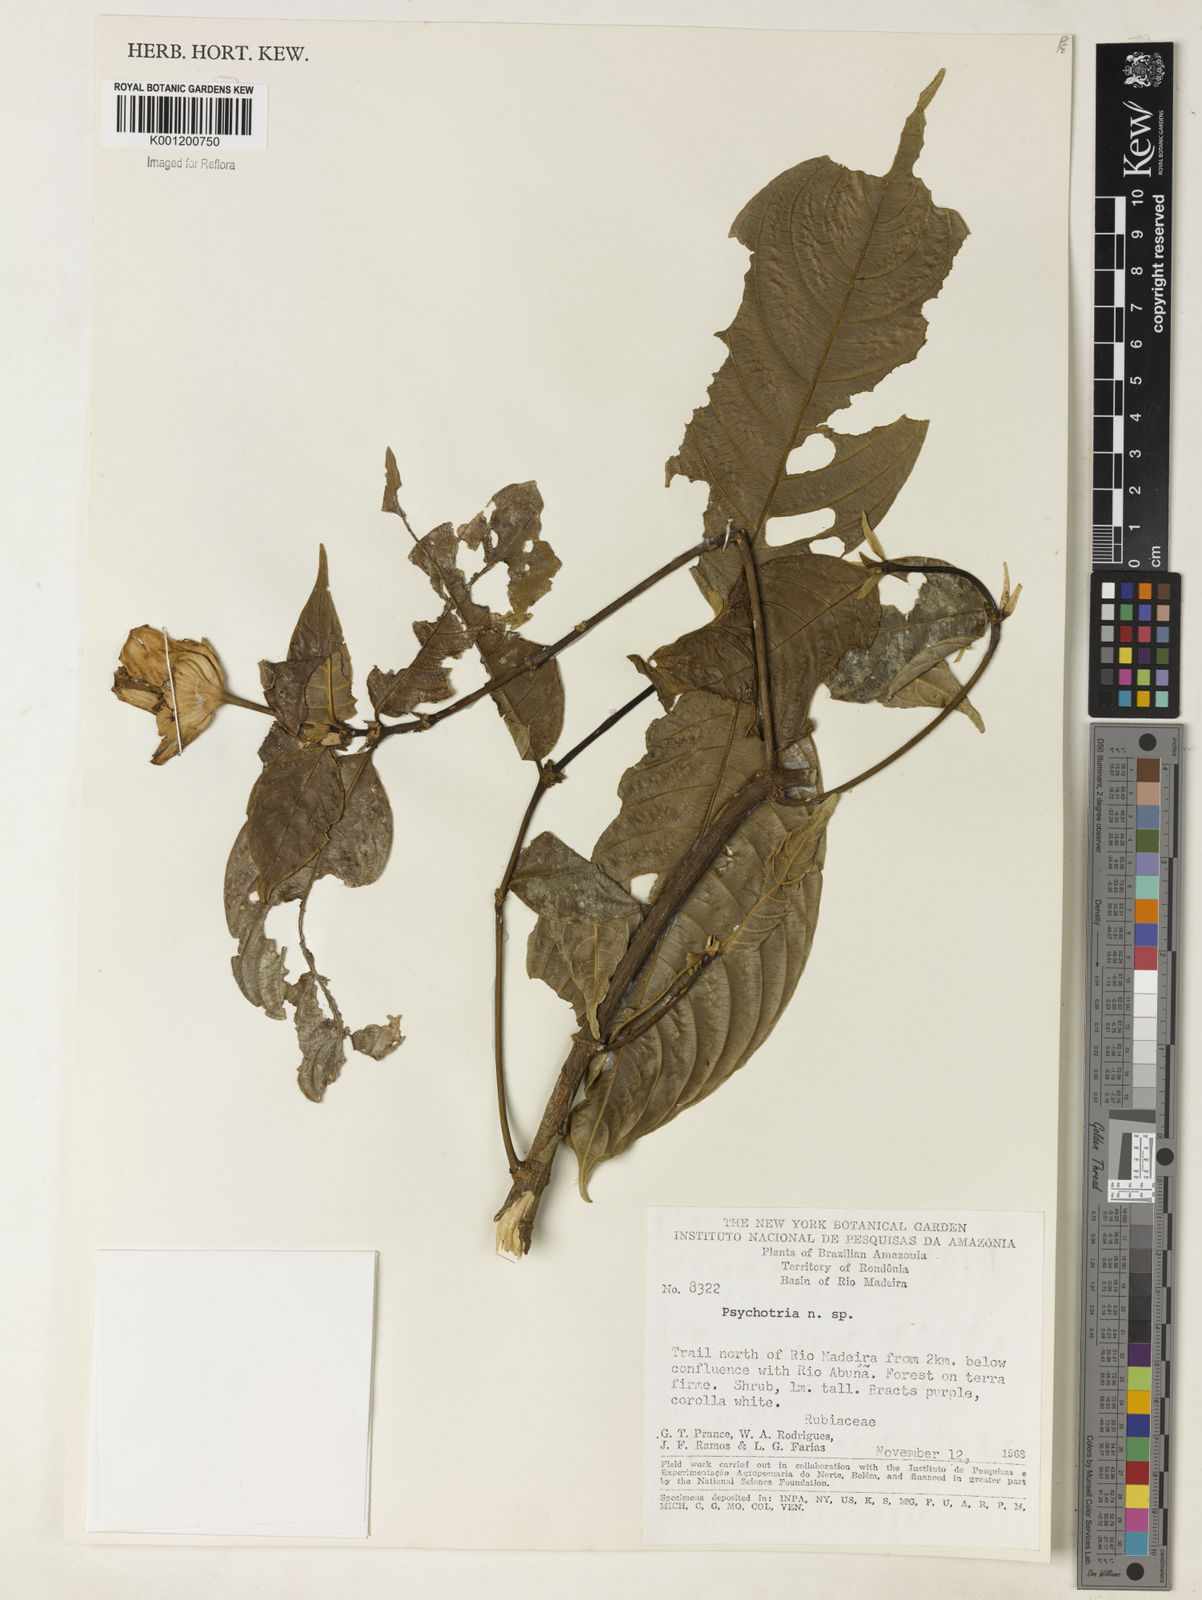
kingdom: Plantae
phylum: Tracheophyta
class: Magnoliopsida
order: Gentianales
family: Rubiaceae
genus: Psychotria
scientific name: Psychotria
